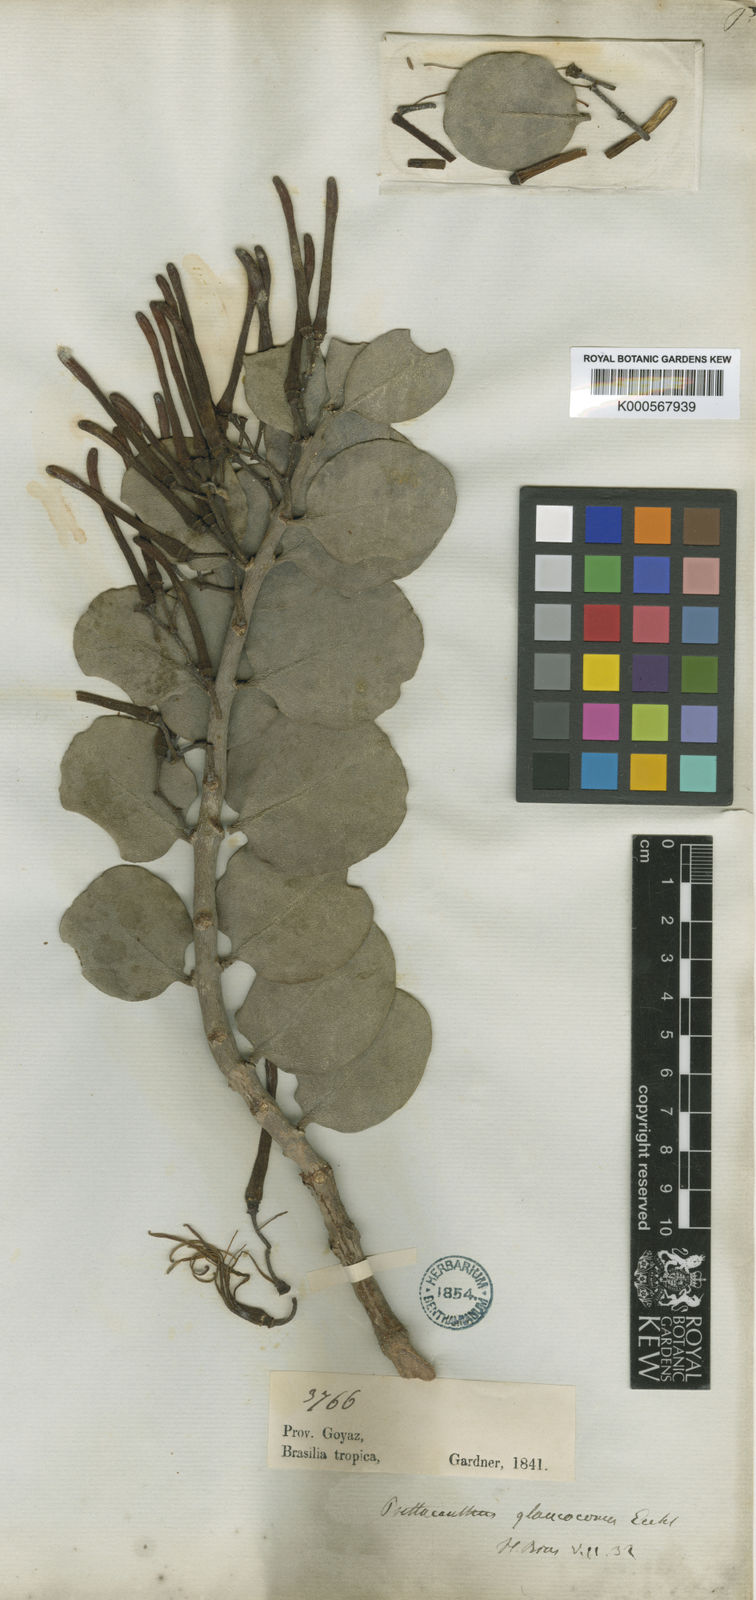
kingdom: Plantae
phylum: Tracheophyta
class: Magnoliopsida
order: Santalales
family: Loranthaceae
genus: Psittacanthus
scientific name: Psittacanthus biternatus
